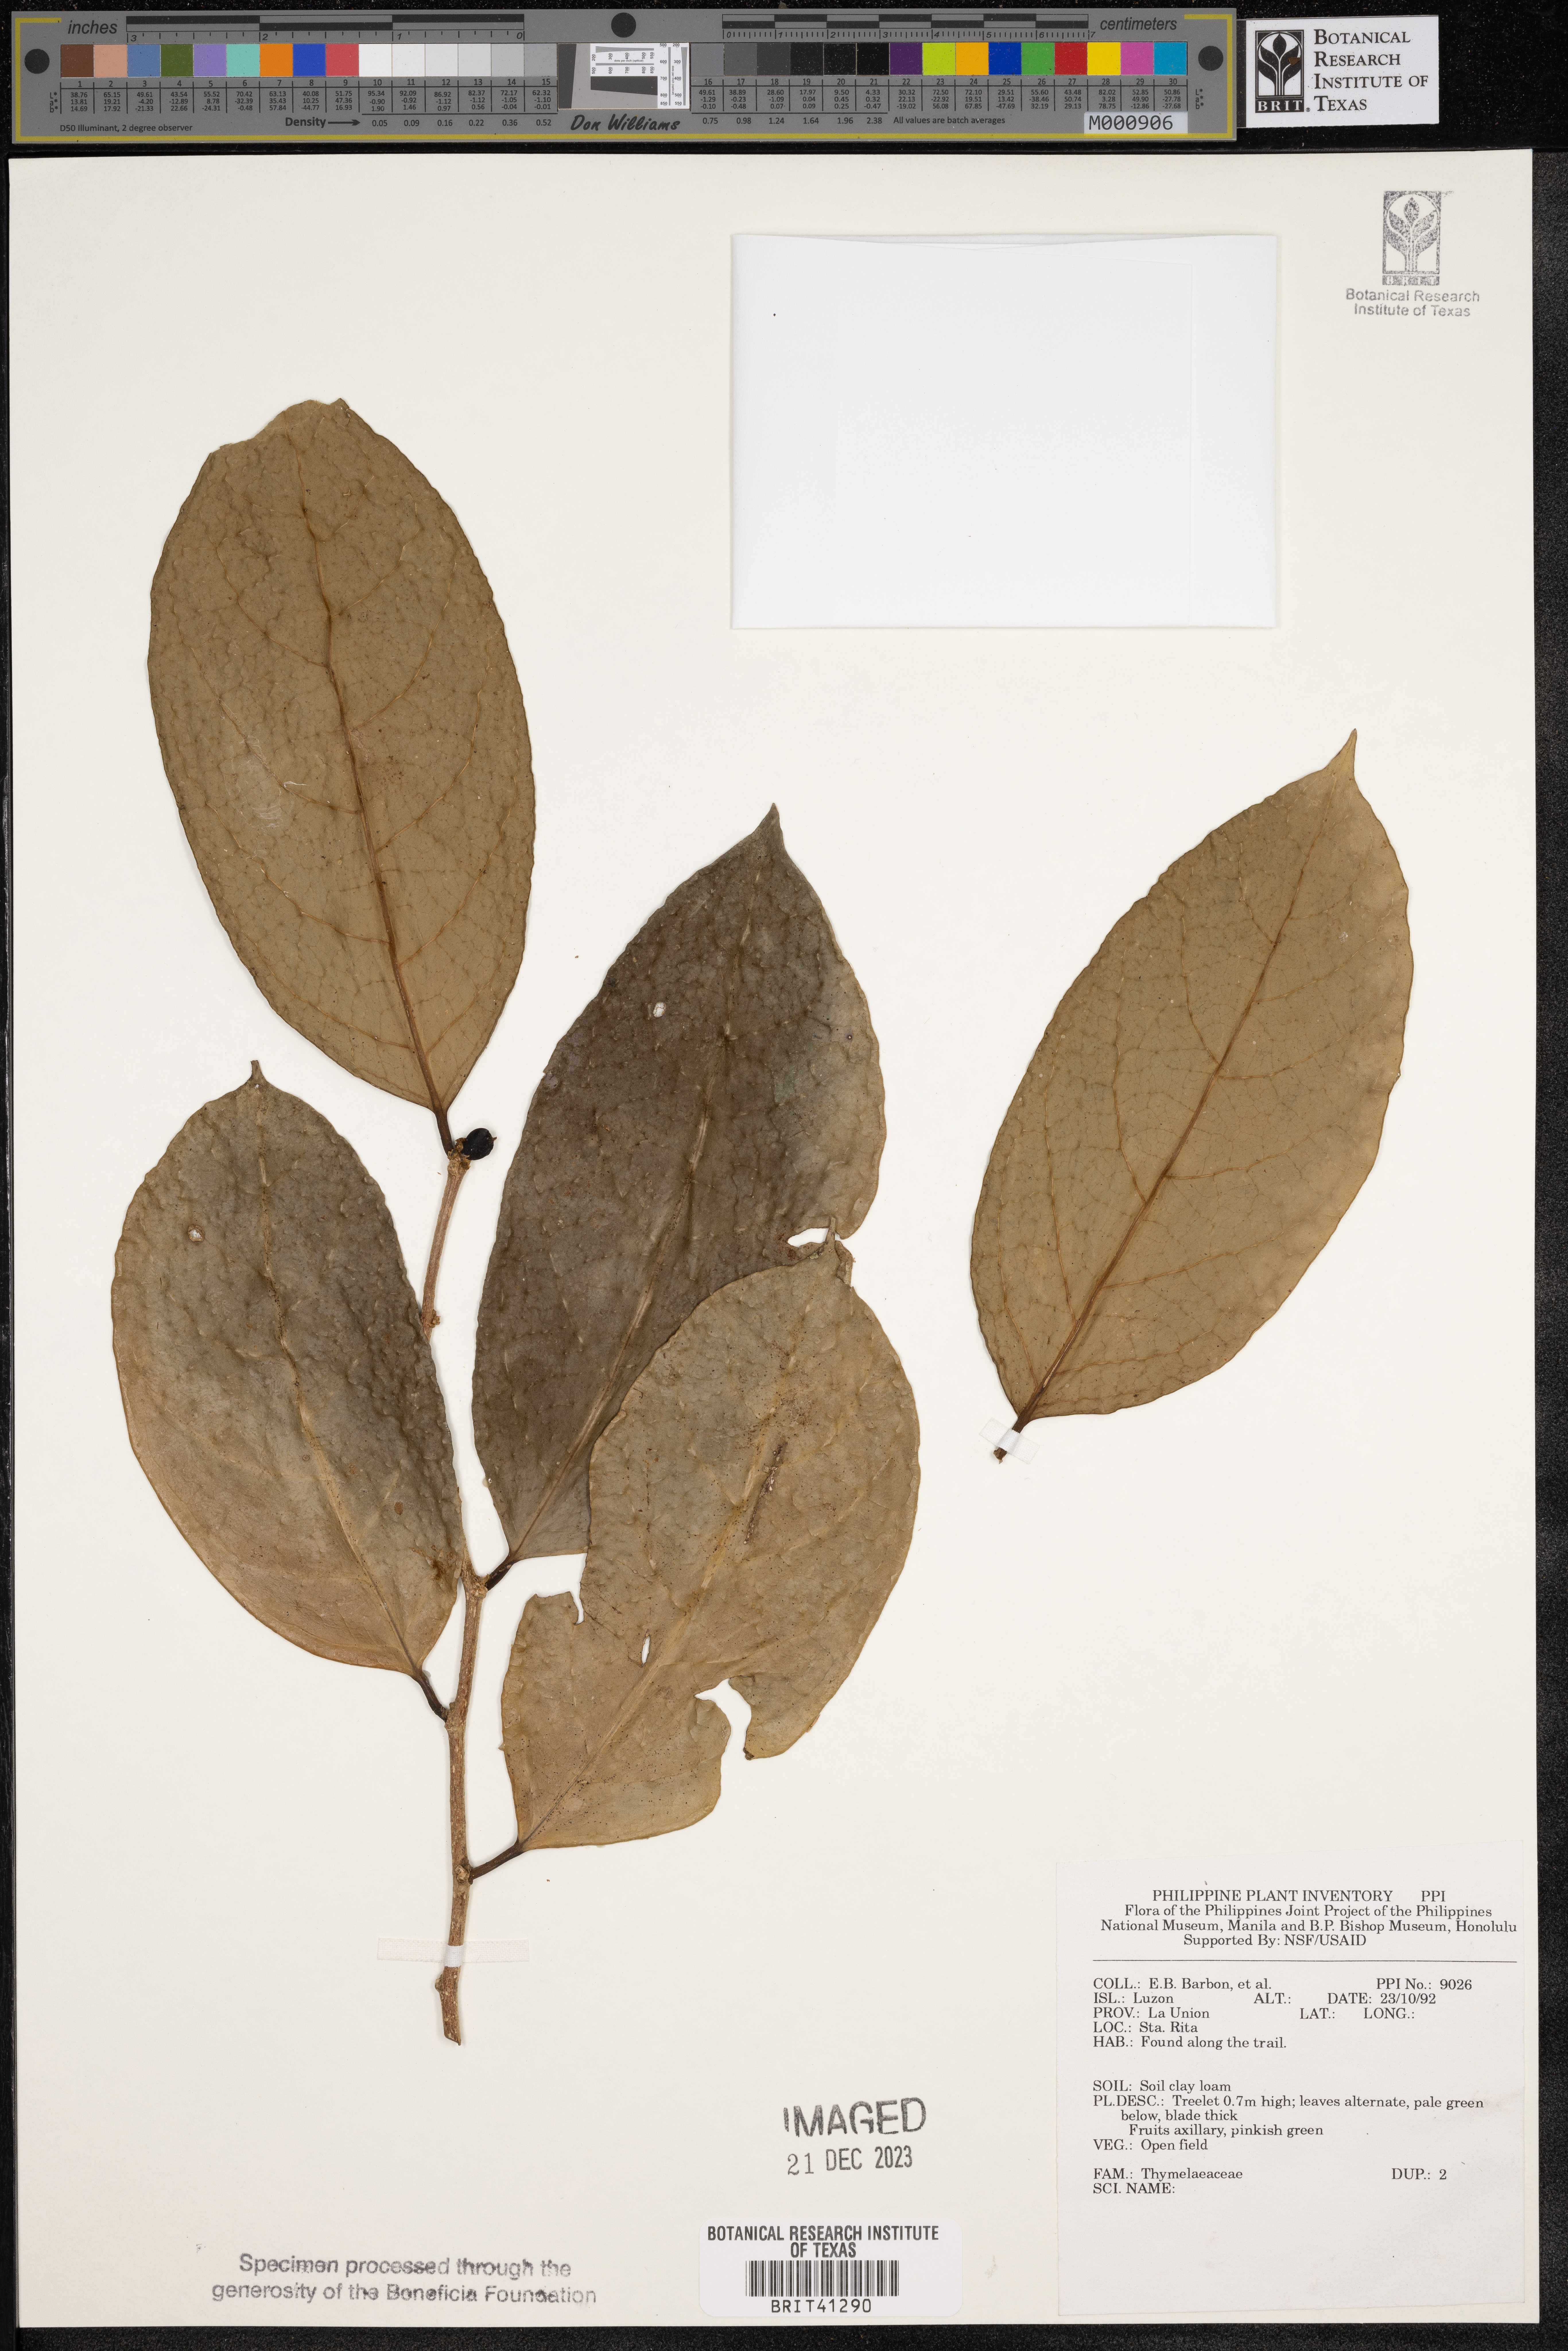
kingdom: Plantae
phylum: Tracheophyta
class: Magnoliopsida
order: Malvales
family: Thymelaeaceae
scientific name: Thymelaeaceae
